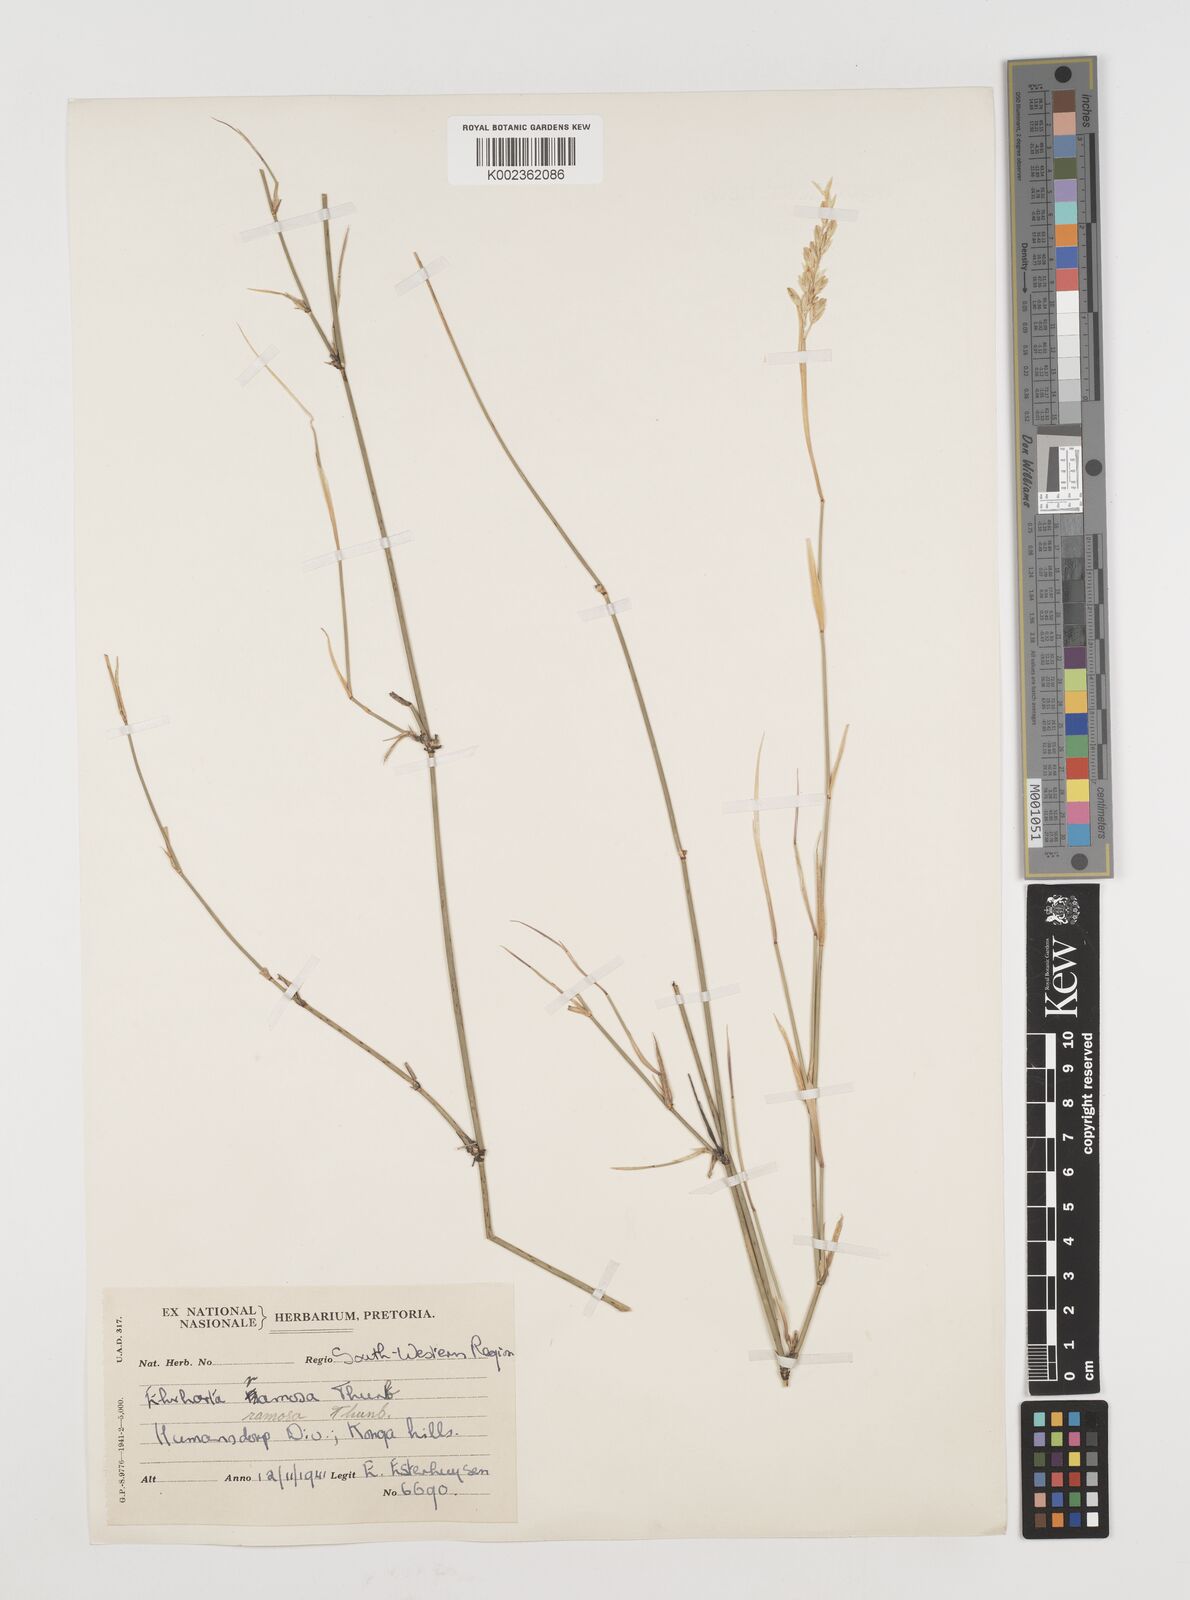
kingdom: Plantae
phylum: Tracheophyta
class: Liliopsida
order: Poales
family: Poaceae
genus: Ehrharta
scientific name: Ehrharta digyna
